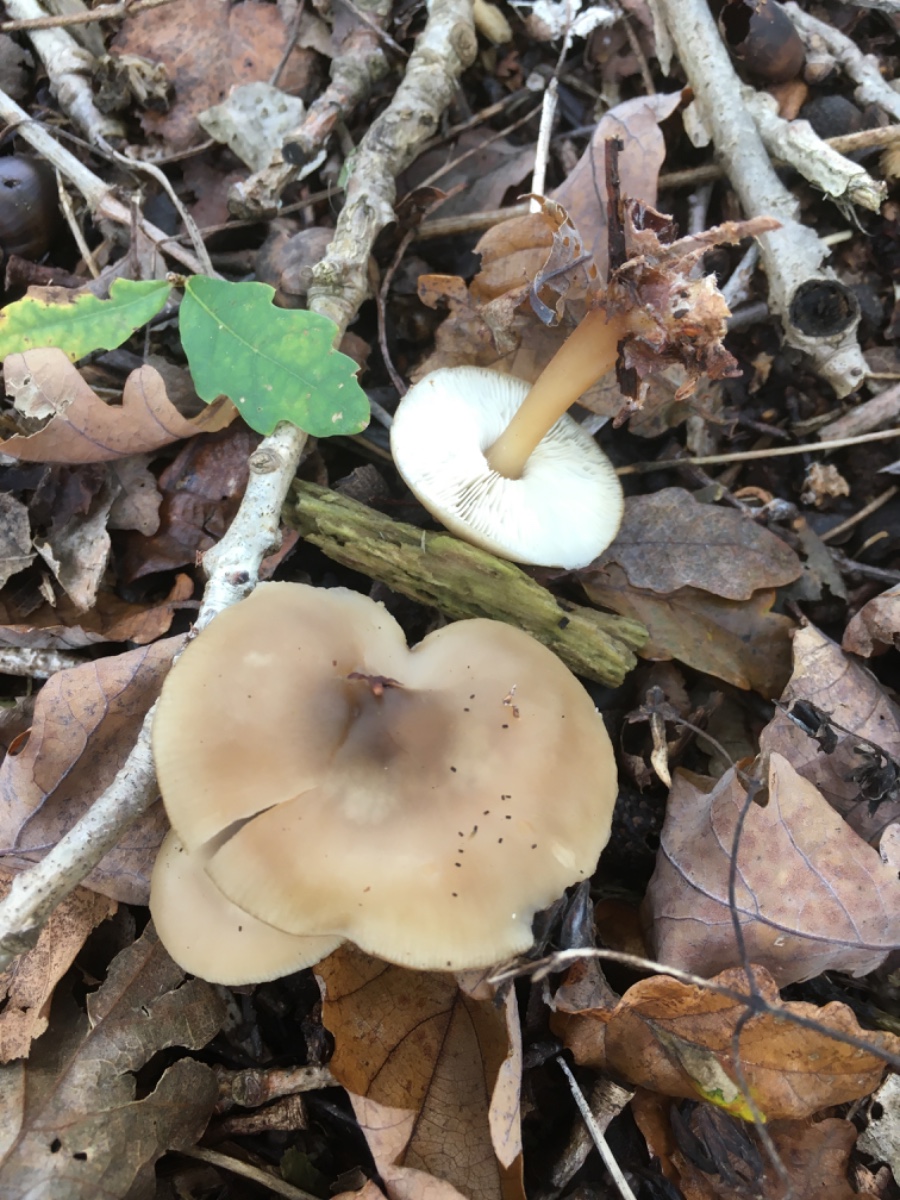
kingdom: Fungi
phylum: Basidiomycota
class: Agaricomycetes
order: Agaricales
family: Omphalotaceae
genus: Rhodocollybia
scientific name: Rhodocollybia asema
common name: horngrå fladhat
